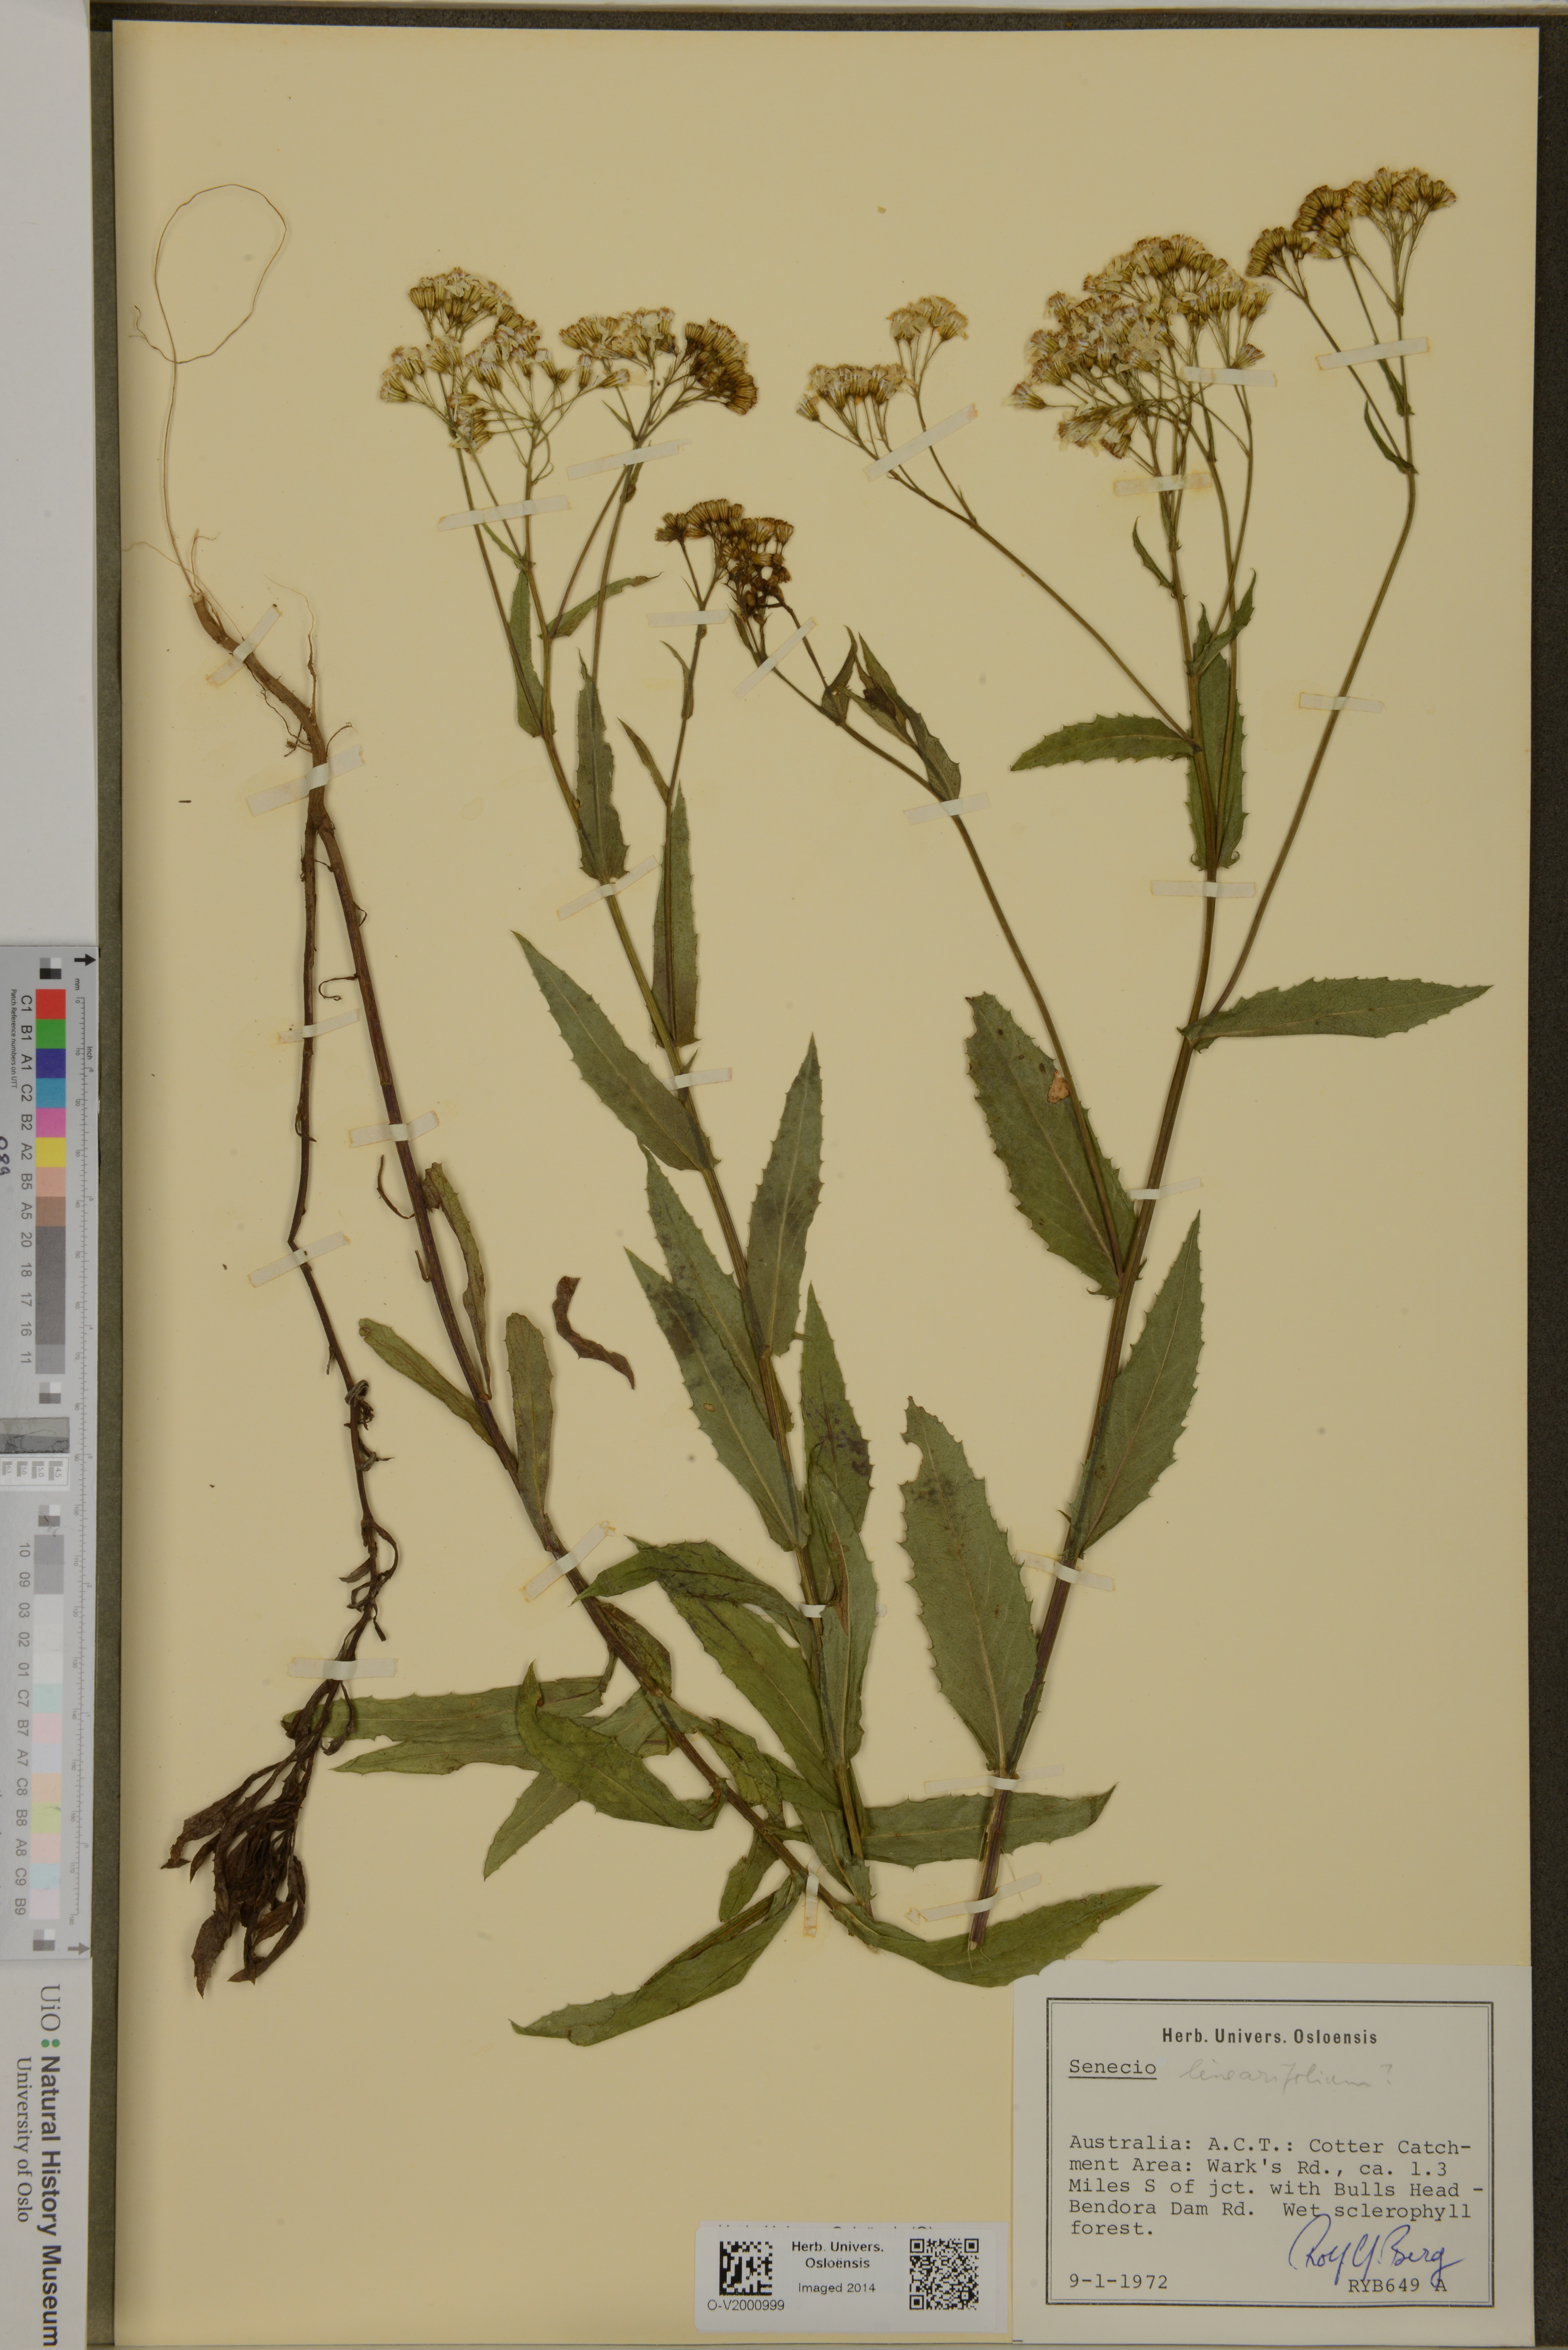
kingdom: Plantae
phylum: Tracheophyta
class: Magnoliopsida
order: Asterales
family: Asteraceae
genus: Senecio
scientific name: Senecio linearifolius
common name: Fireweed groundsel
